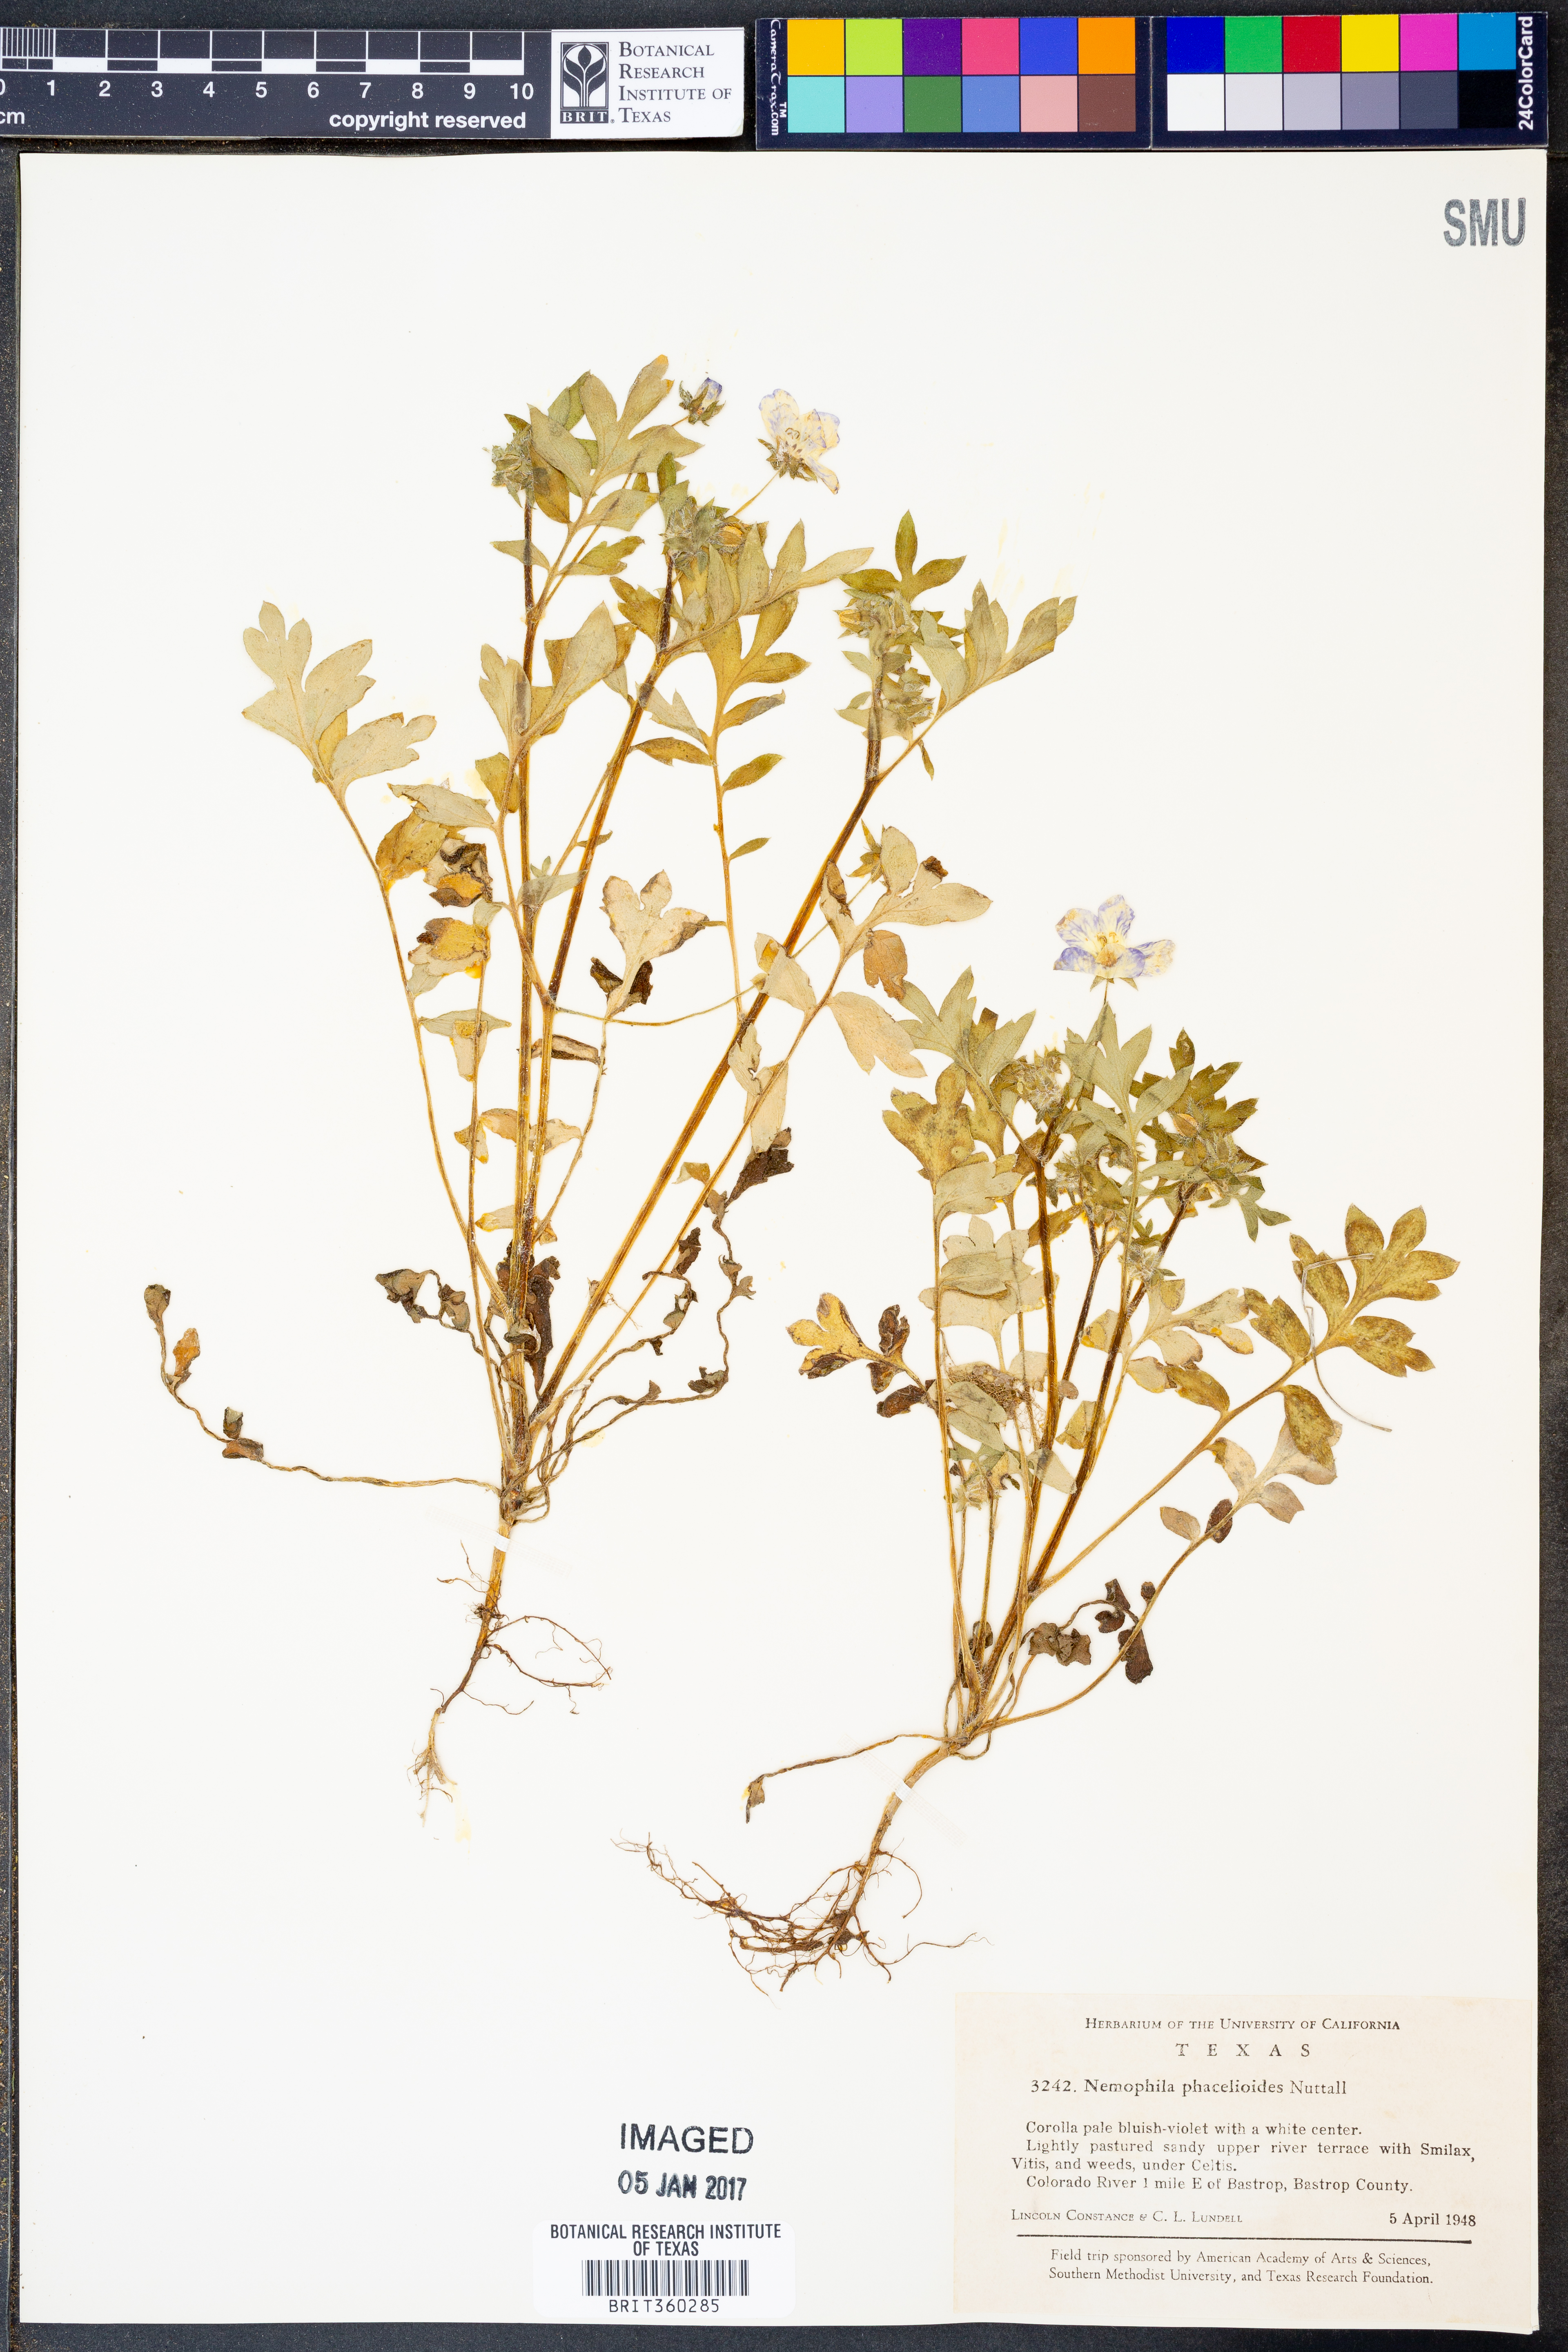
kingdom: Plantae
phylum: Tracheophyta
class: Magnoliopsida
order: Boraginales
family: Hydrophyllaceae
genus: Nemophila
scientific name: Nemophila phacelioides
